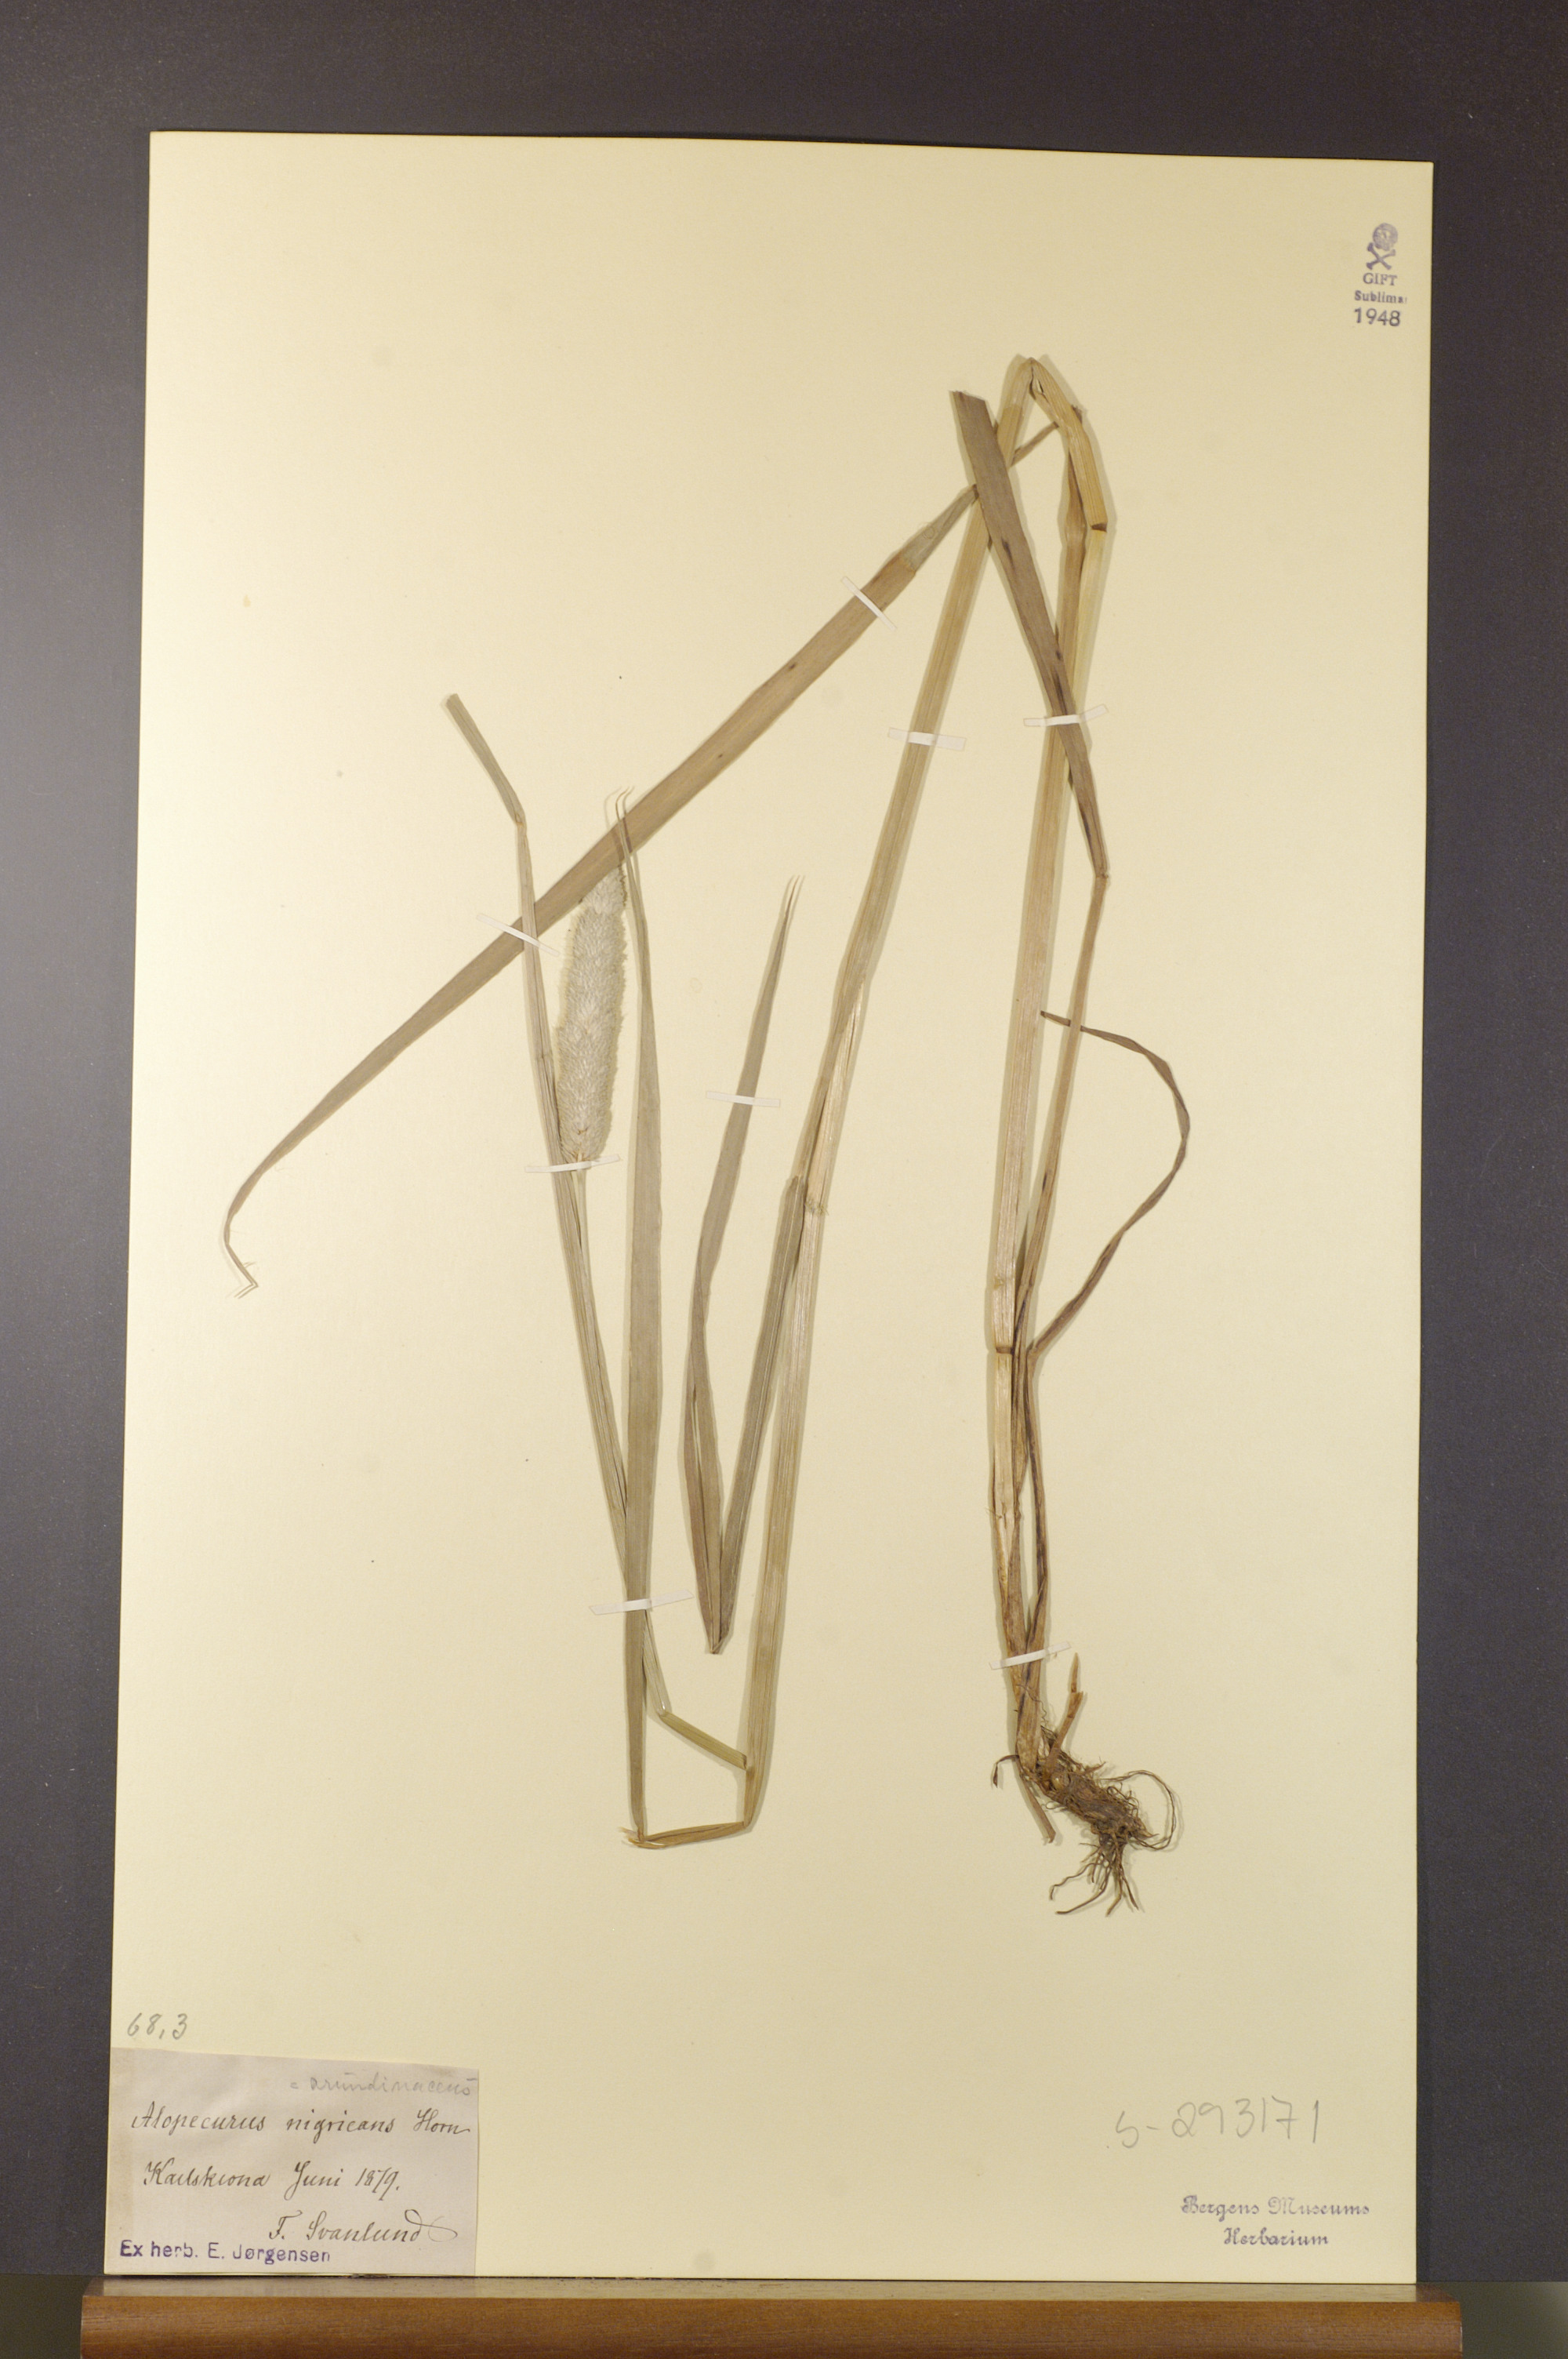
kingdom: Plantae
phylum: Tracheophyta
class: Liliopsida
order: Poales
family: Poaceae
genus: Alopecurus
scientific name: Alopecurus arundinaceus
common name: Creeping meadow foxtail
